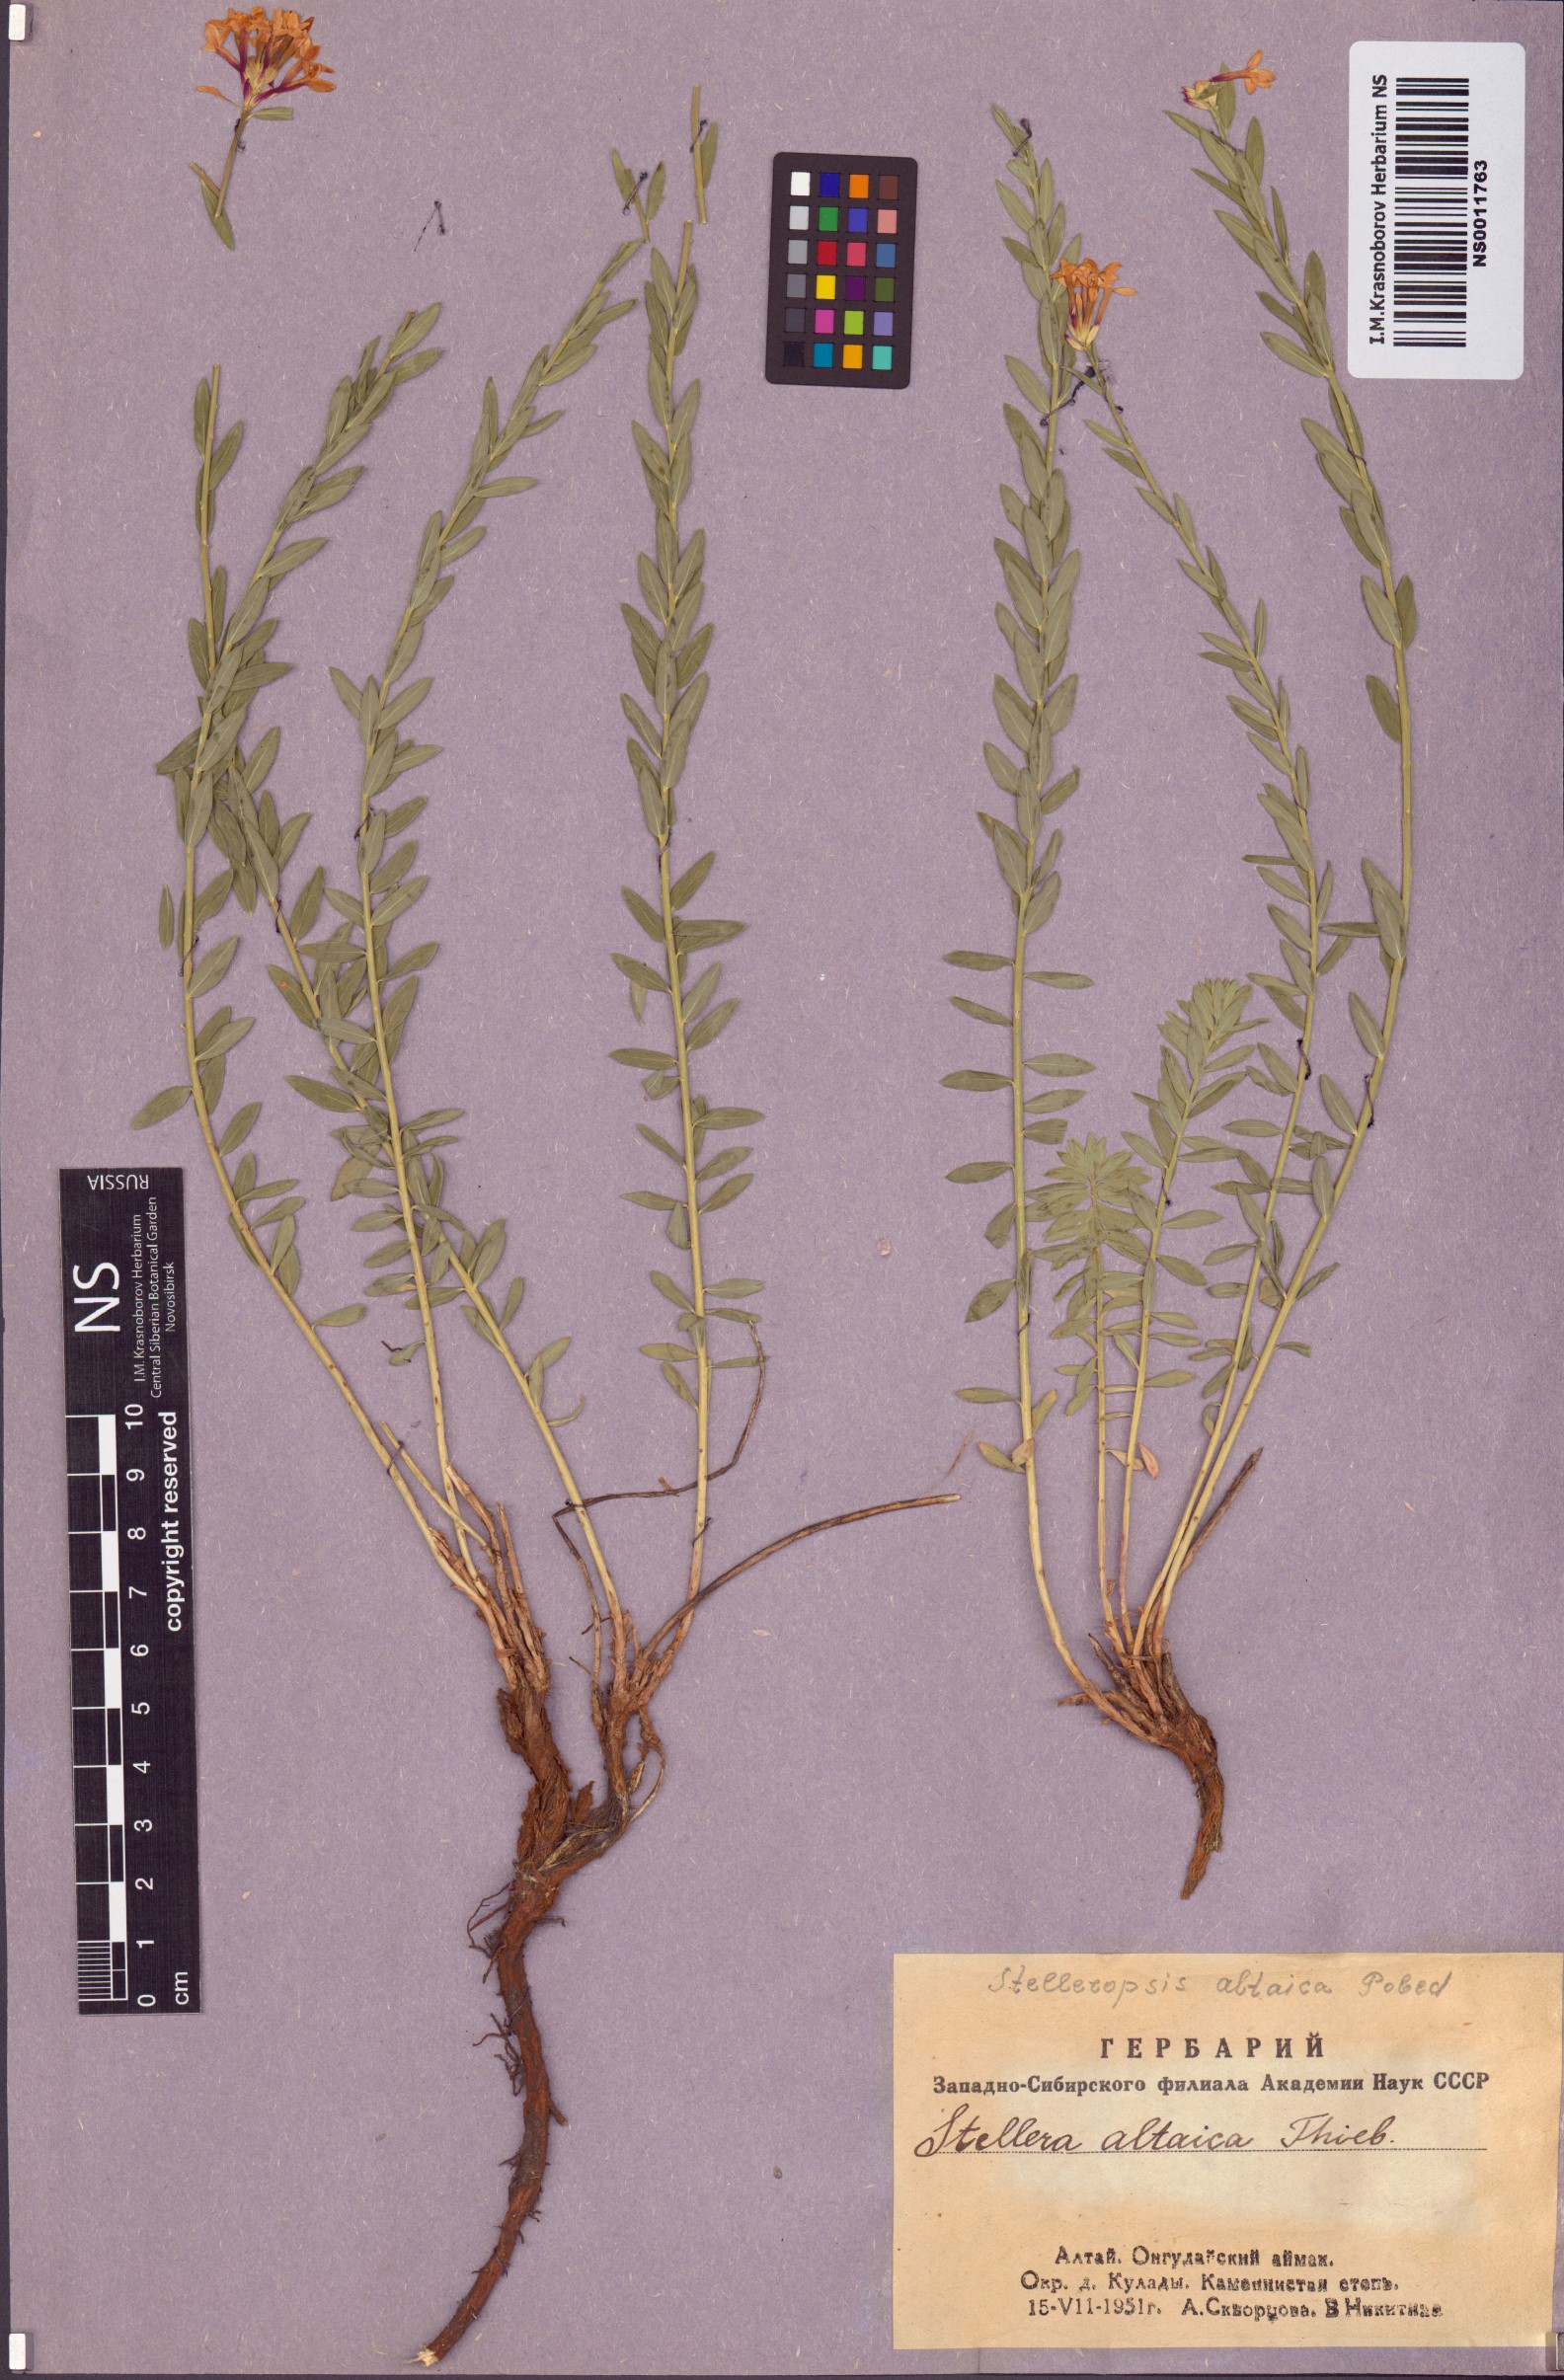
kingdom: Plantae
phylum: Tracheophyta
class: Magnoliopsida
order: Malvales
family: Thymelaeaceae
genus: Diarthron
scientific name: Diarthron altaicum
